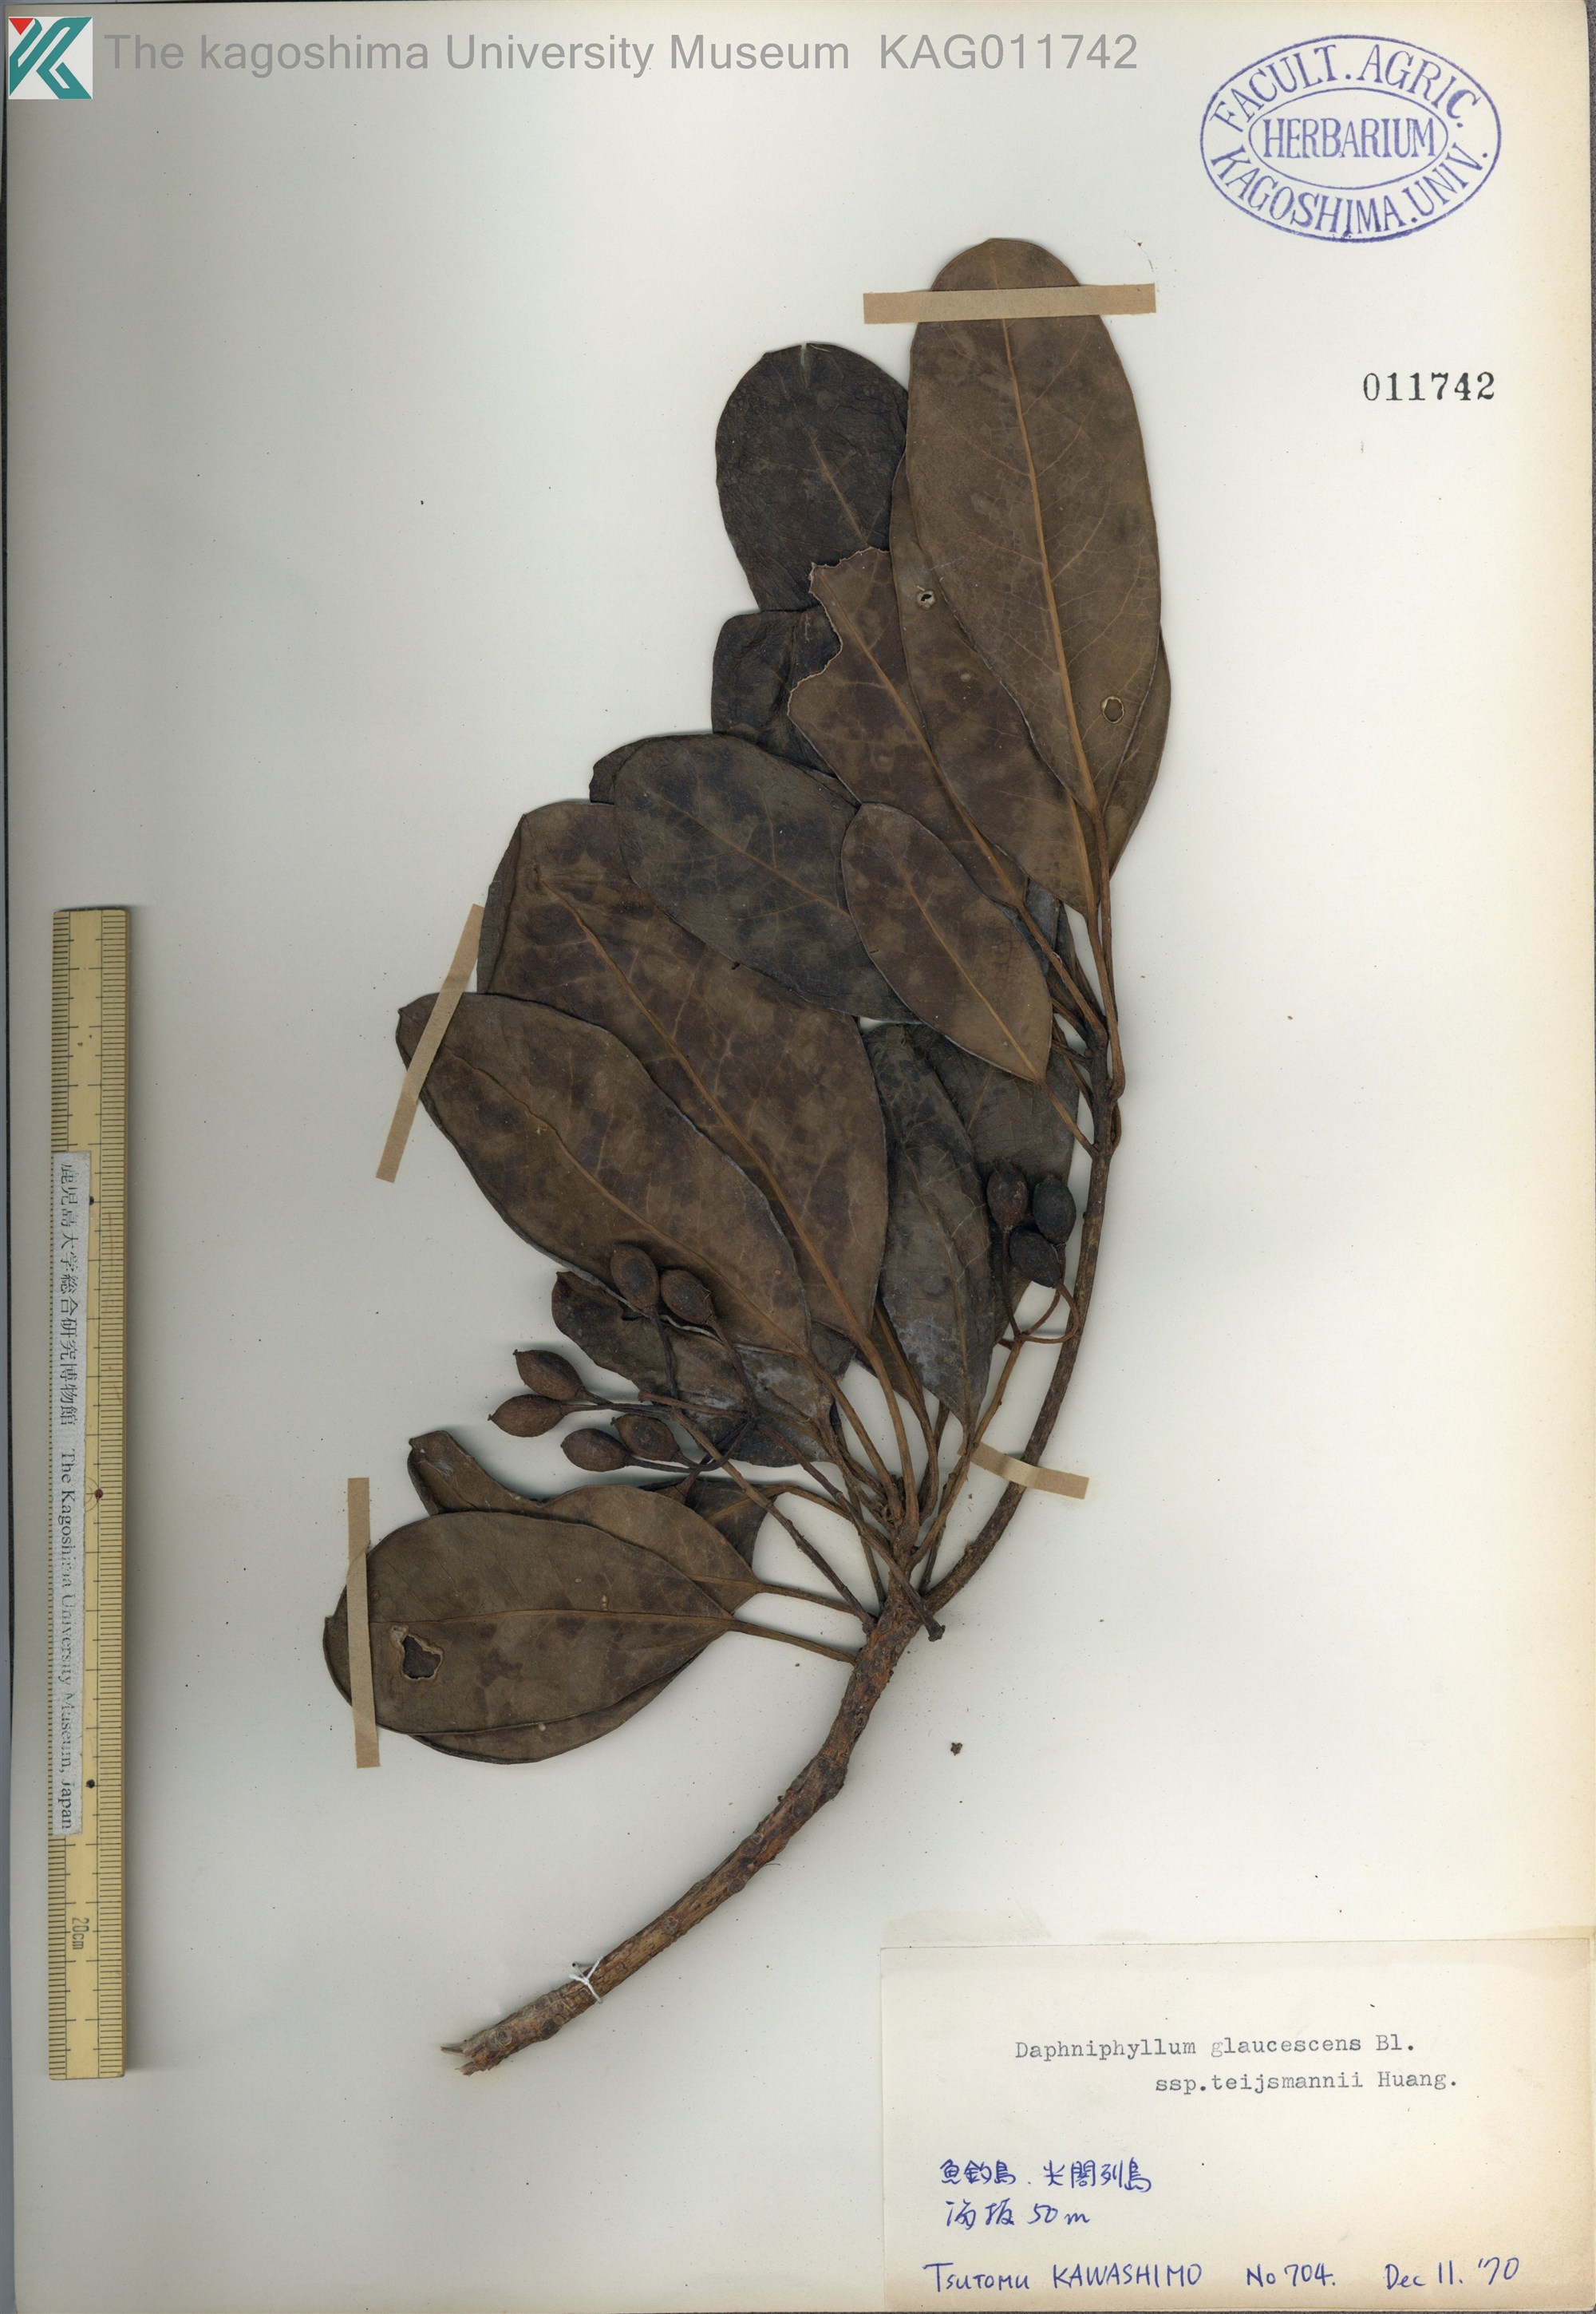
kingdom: Plantae
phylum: Tracheophyta
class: Magnoliopsida
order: Saxifragales
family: Daphniphyllaceae
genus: Daphniphyllum
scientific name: Daphniphyllum teijsmannii
